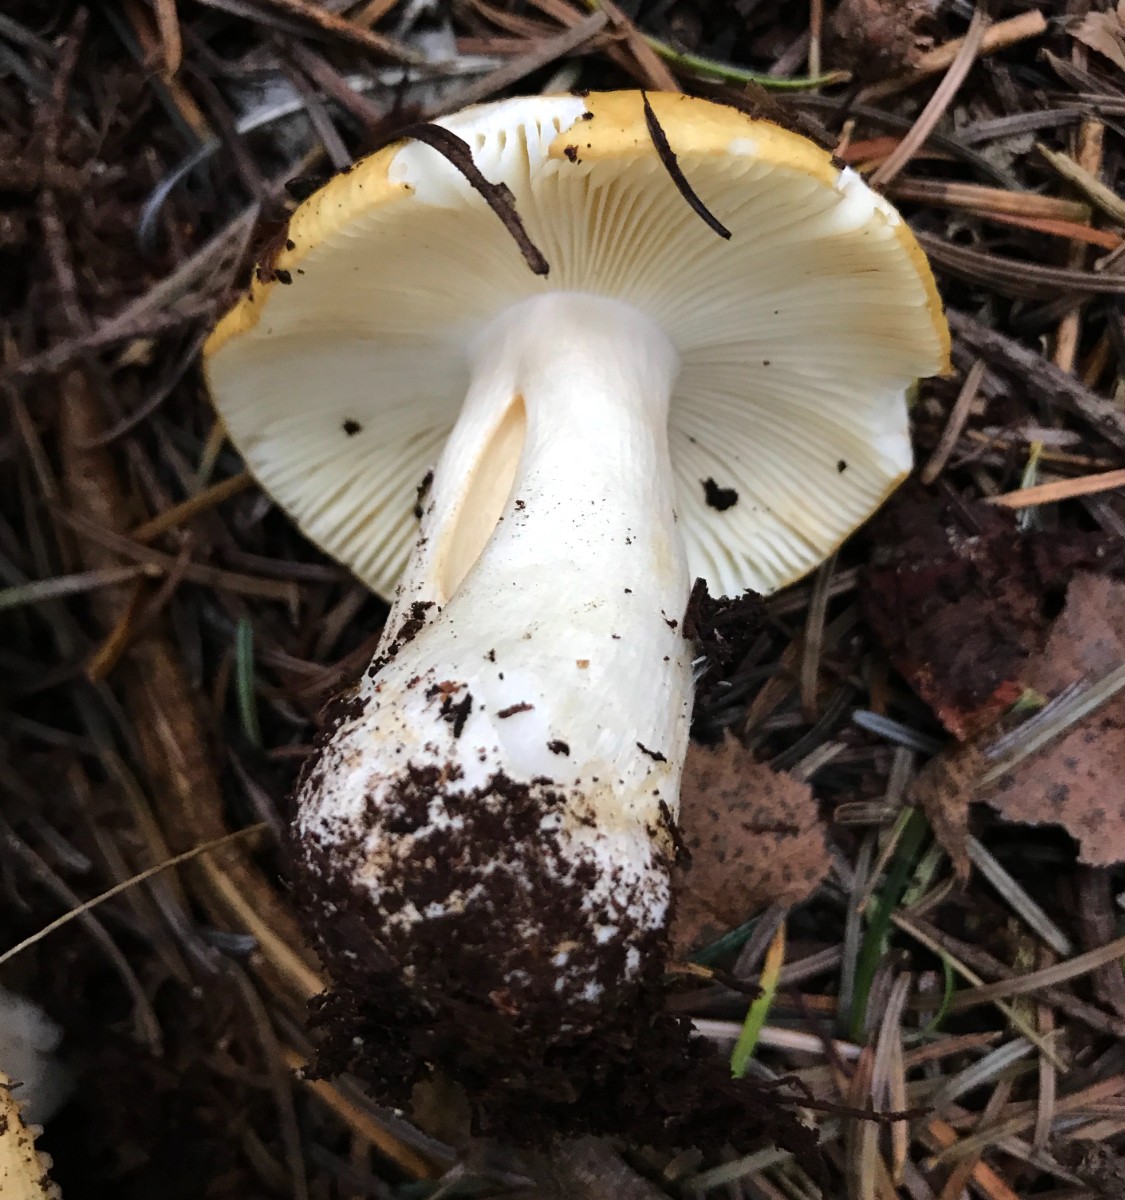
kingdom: Fungi
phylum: Basidiomycota
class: Agaricomycetes
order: Russulales
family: Russulaceae
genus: Russula
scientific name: Russula ochroleuca
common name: okkergul skørhat
